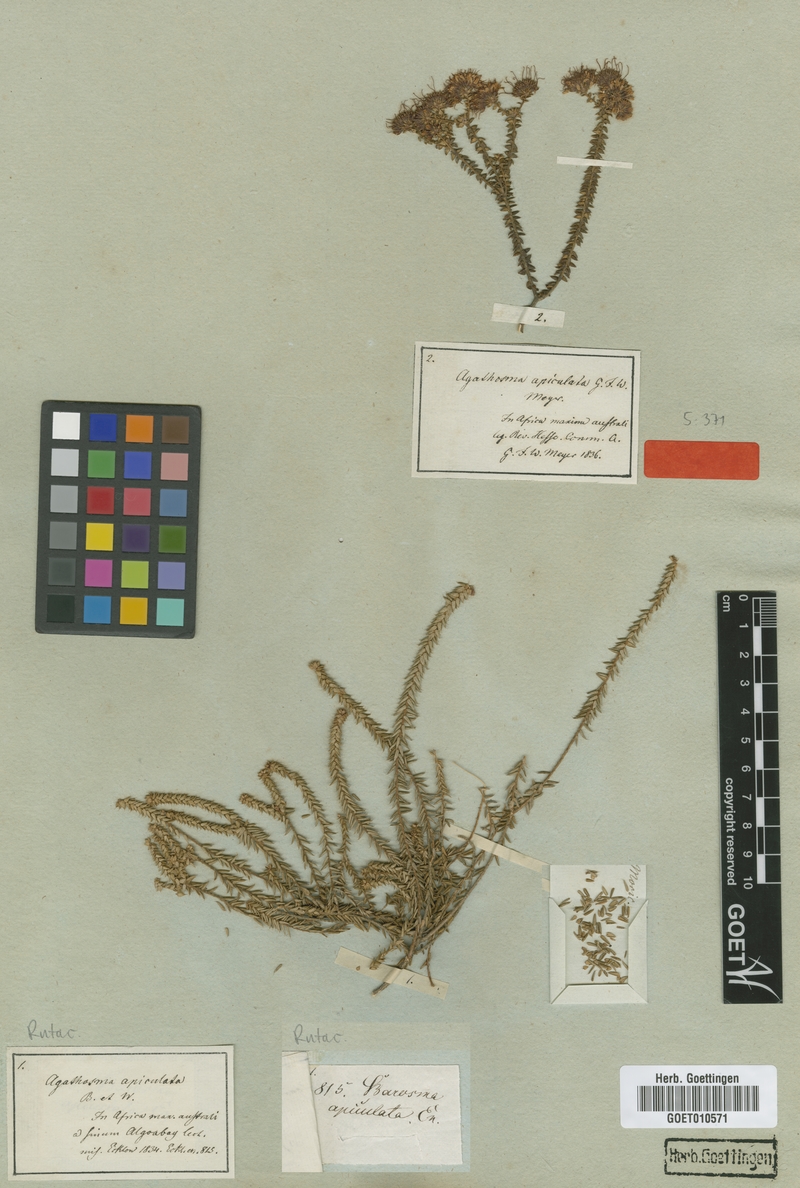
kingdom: Plantae
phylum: Tracheophyta
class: Magnoliopsida
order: Sapindales
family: Rutaceae
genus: Agathosma
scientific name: Agathosma apiculata
